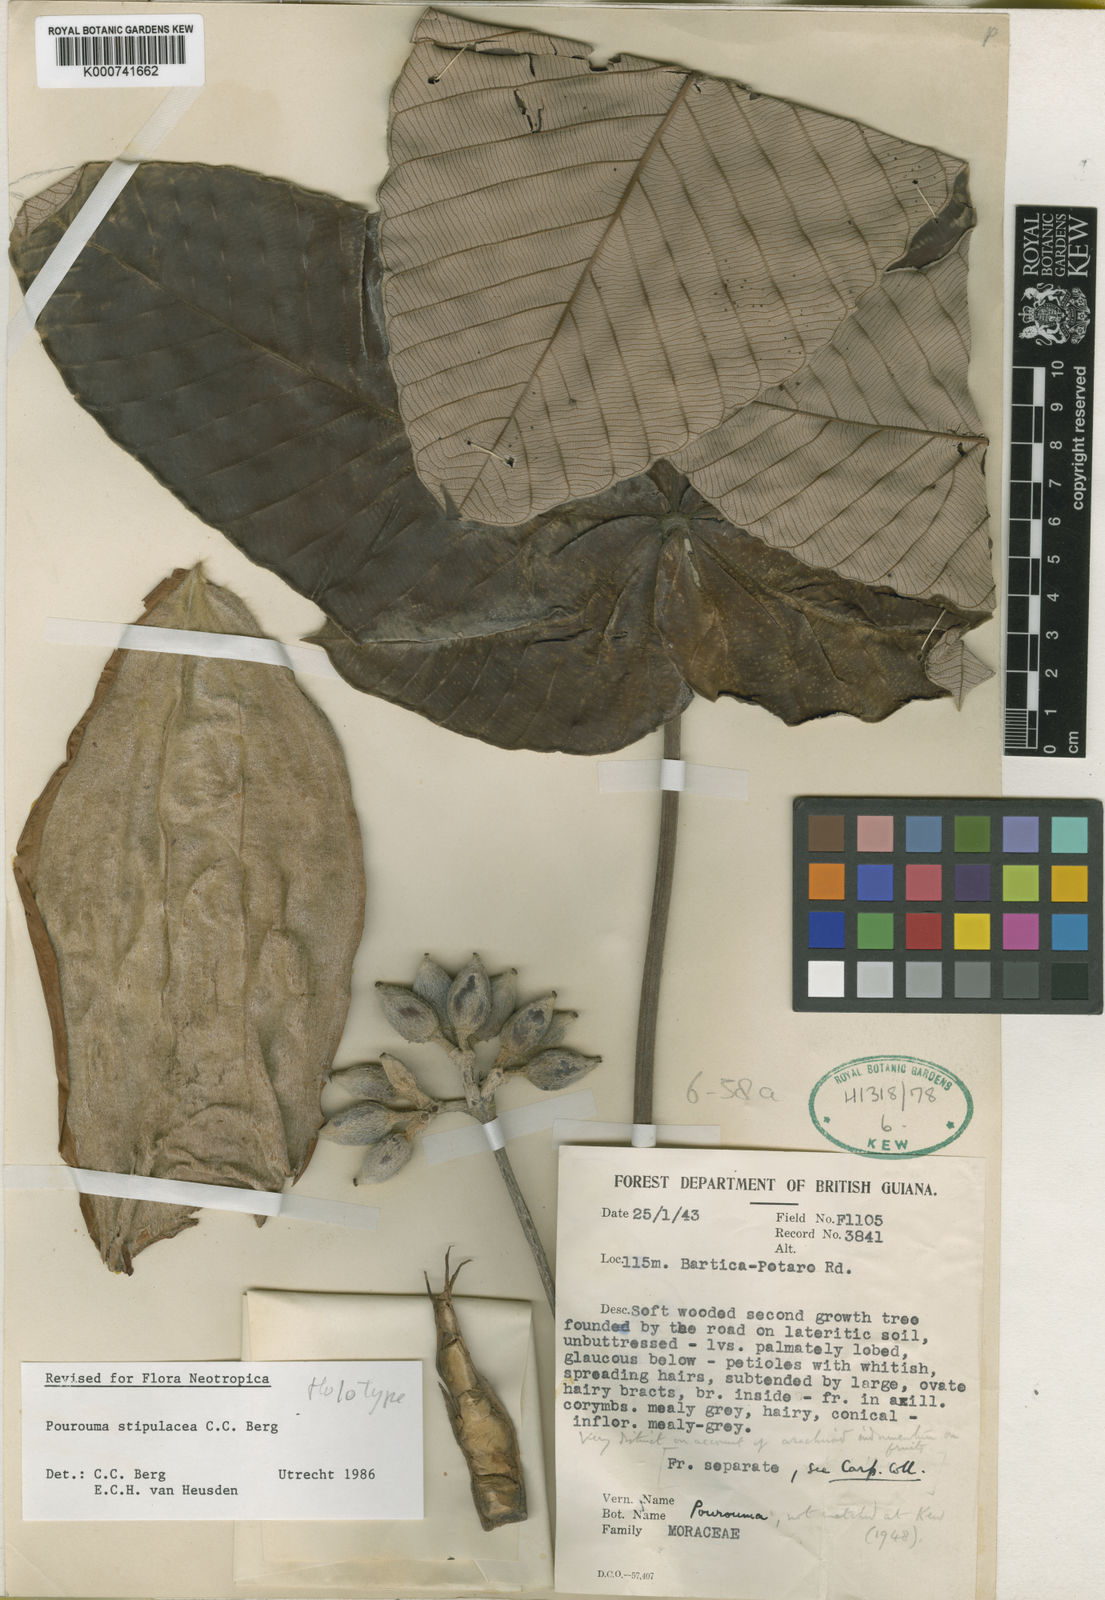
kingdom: Plantae
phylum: Tracheophyta
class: Magnoliopsida
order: Rosales
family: Urticaceae
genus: Pourouma
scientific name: Pourouma stipulacea
